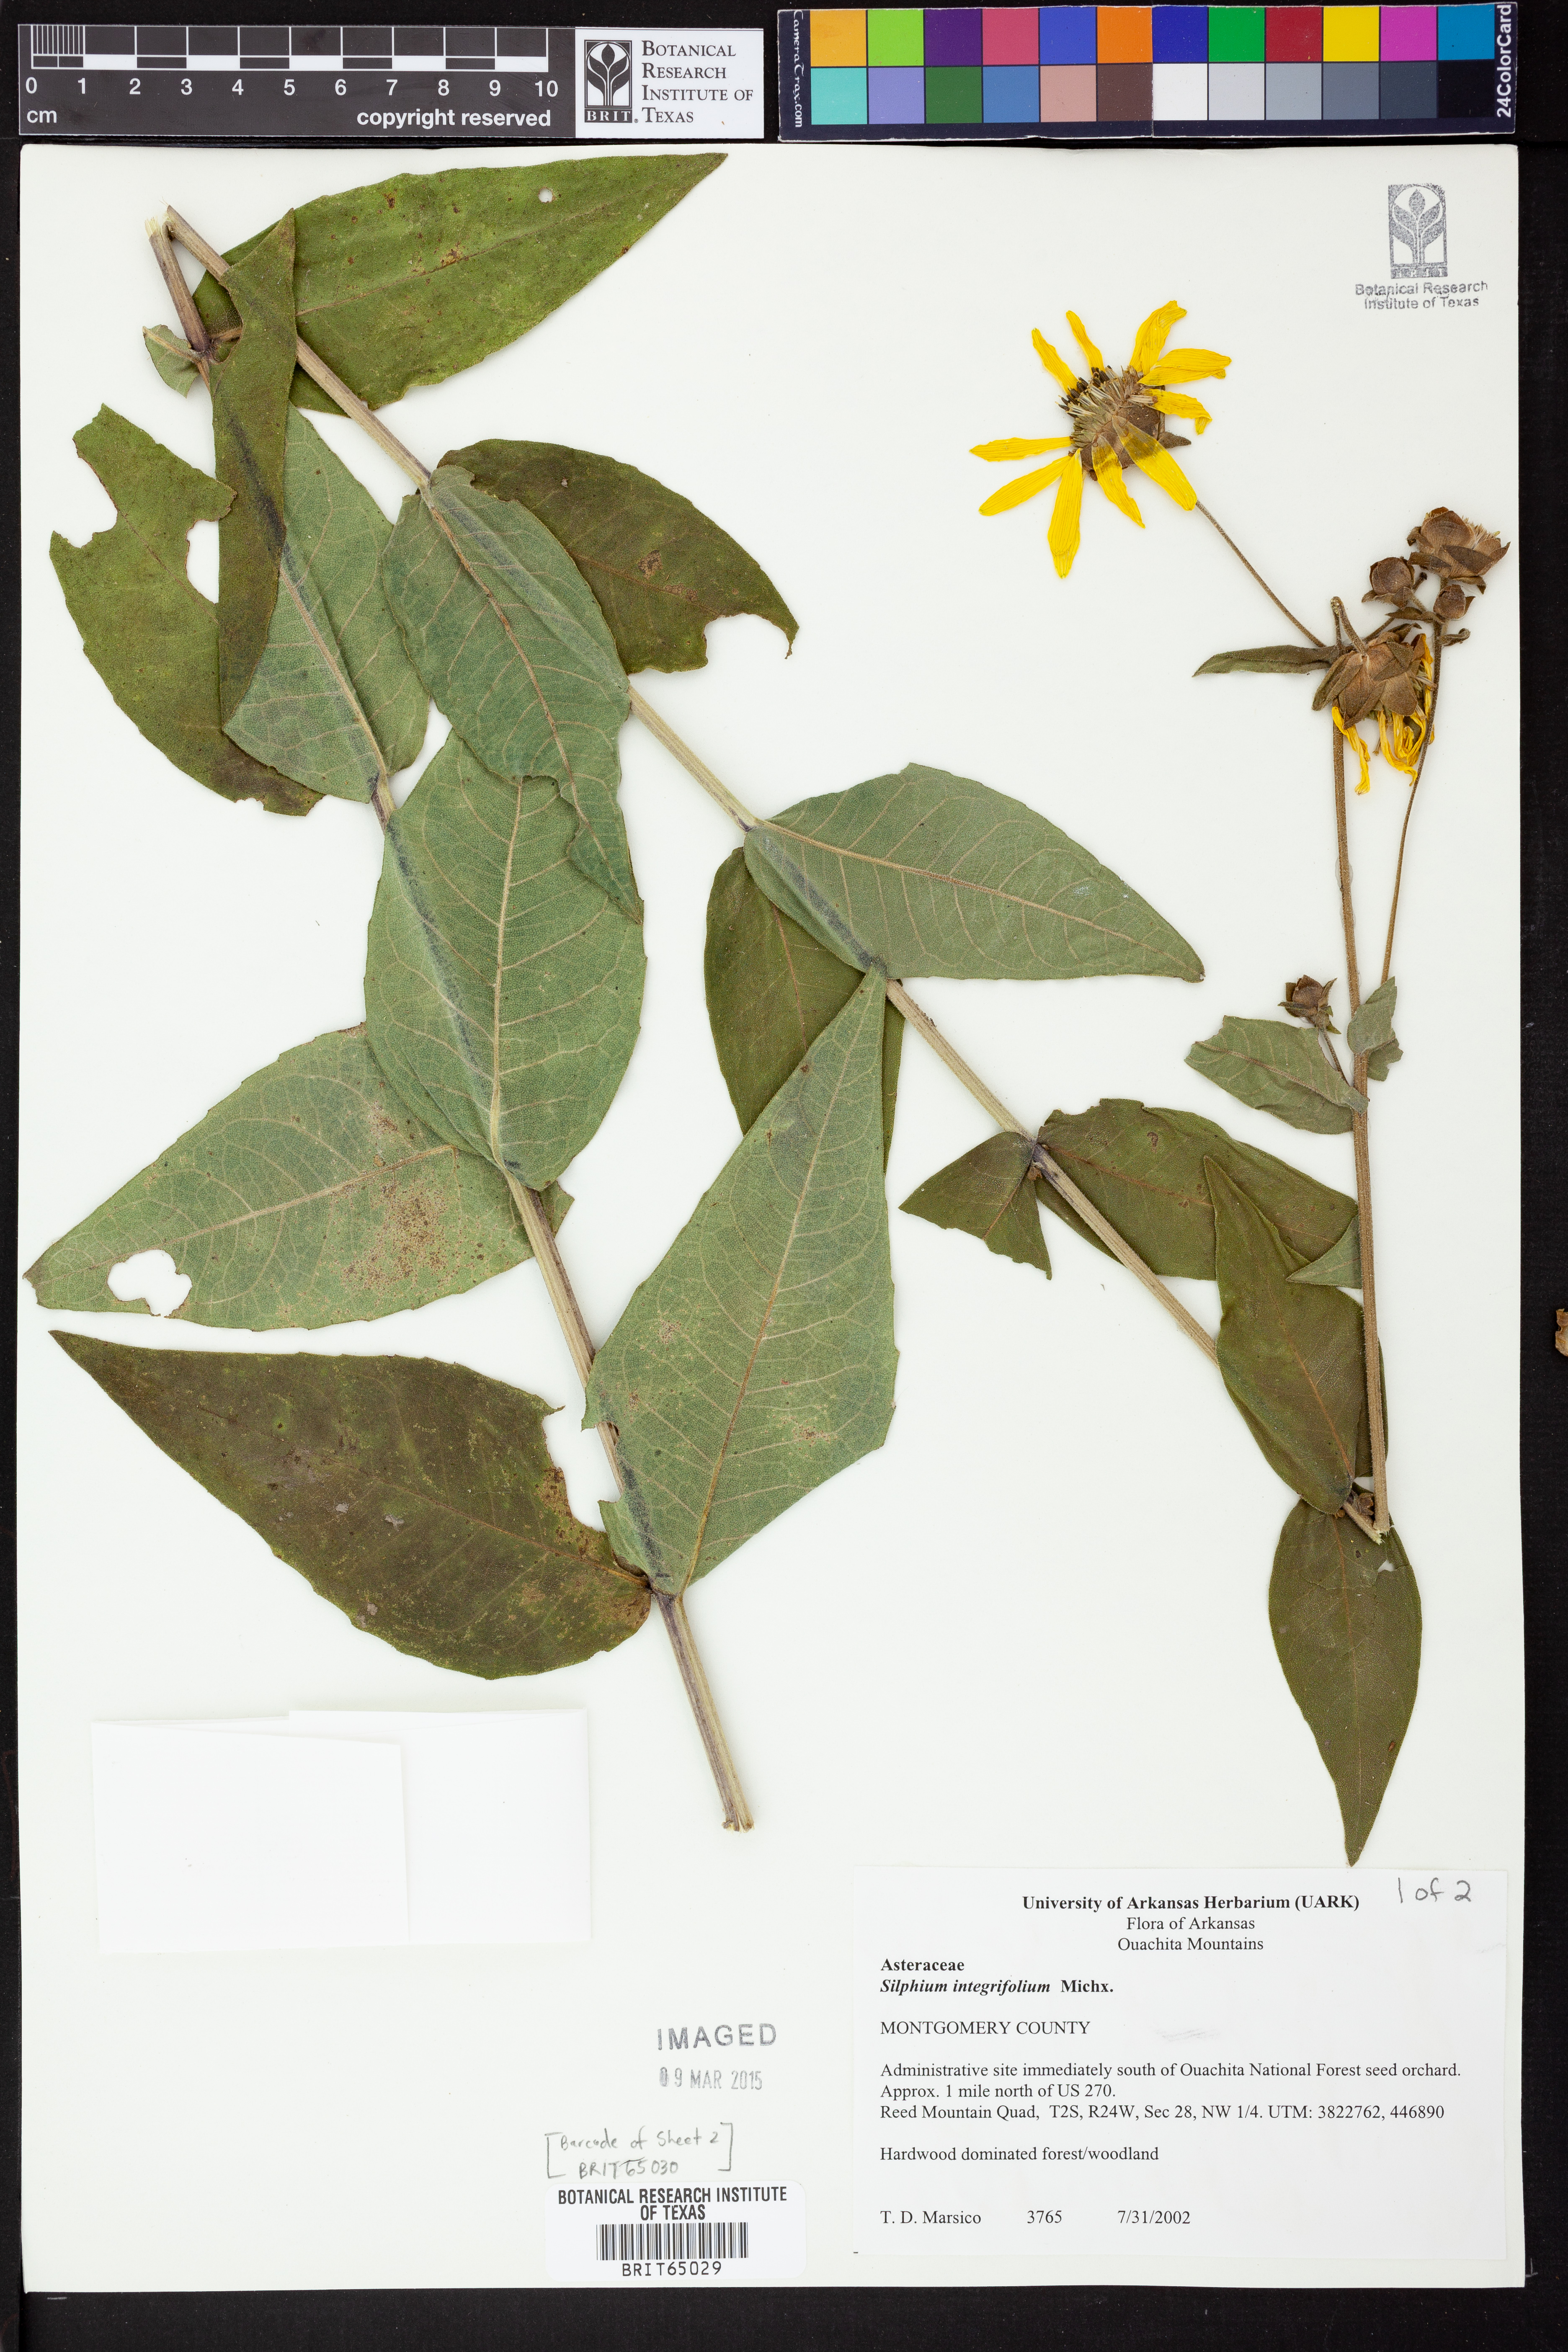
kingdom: Plantae
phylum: Tracheophyta
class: Magnoliopsida
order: Asterales
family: Asteraceae
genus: Silphium
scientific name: Silphium integrifolium
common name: Whole-leaf rosinweed
